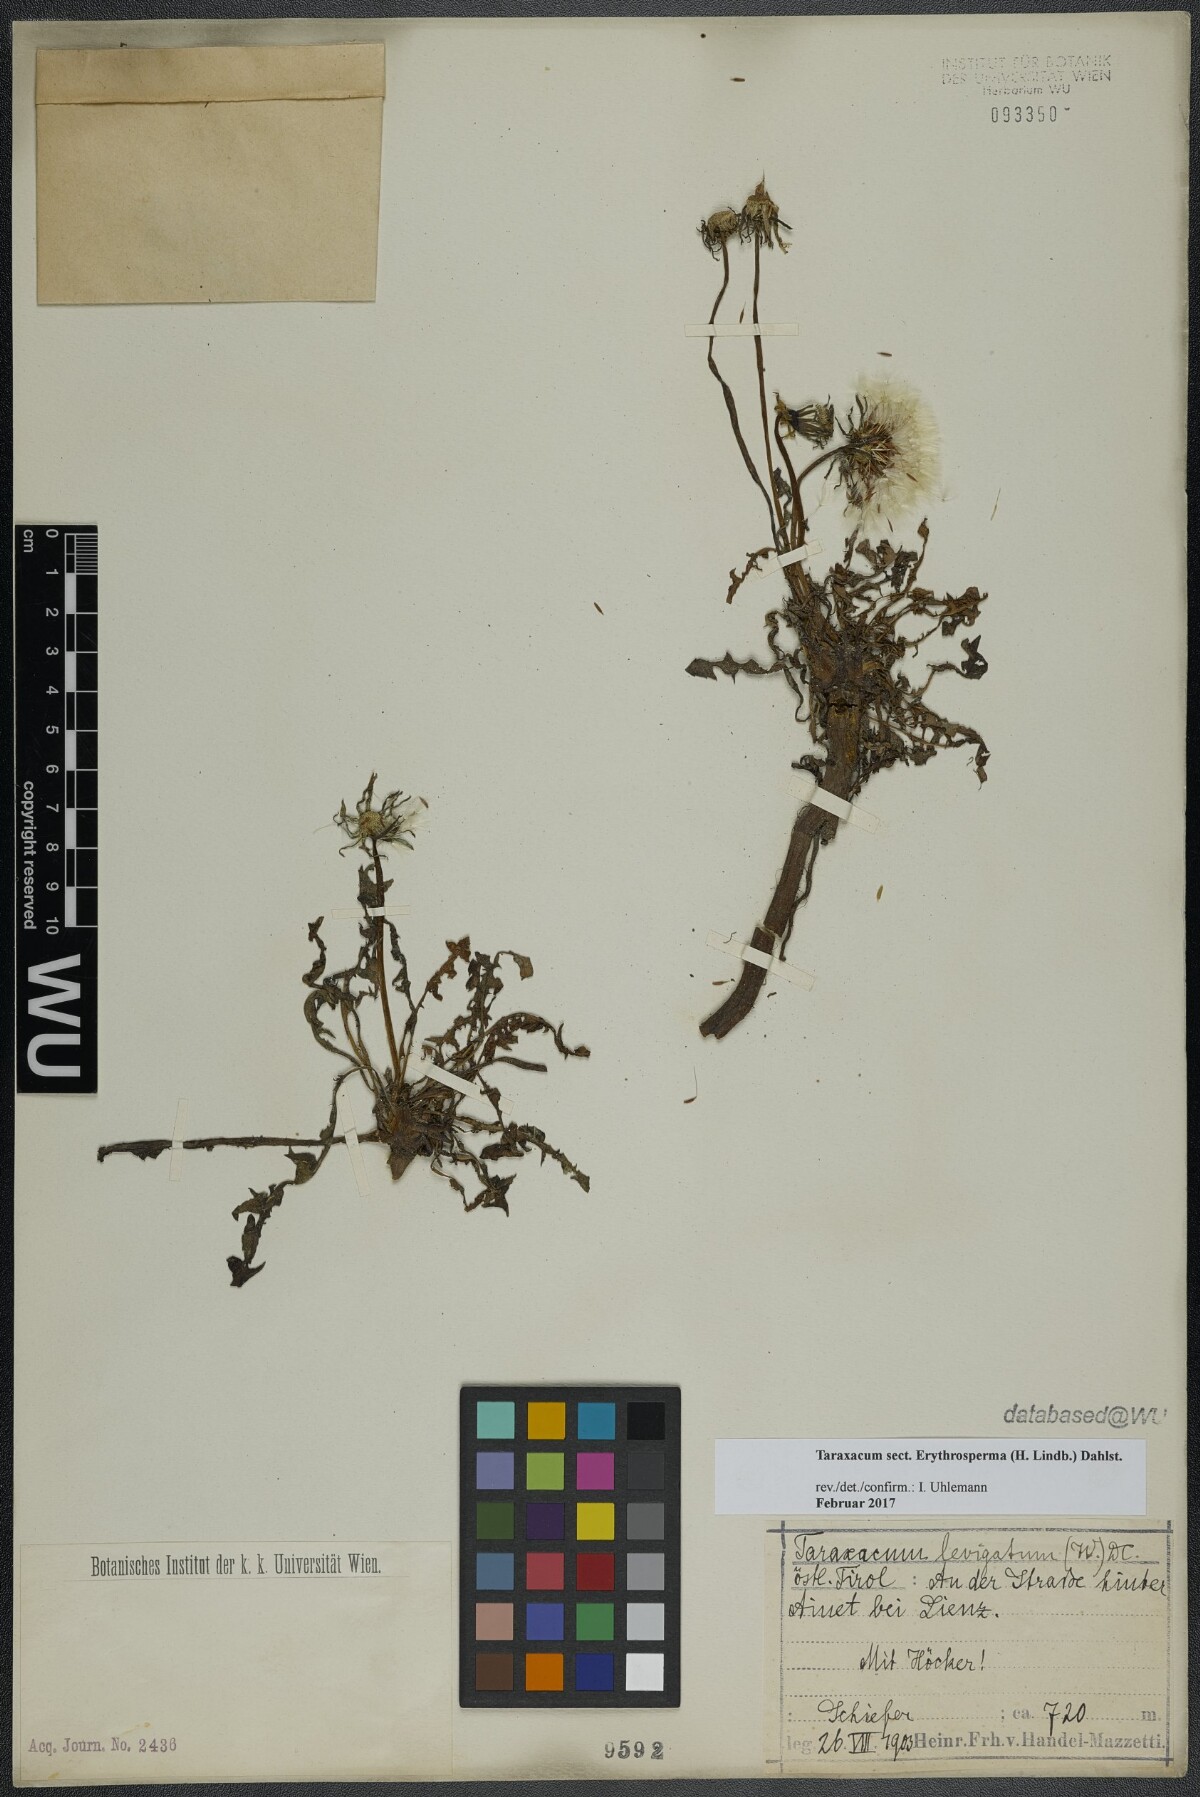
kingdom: Plantae
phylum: Tracheophyta
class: Magnoliopsida
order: Asterales
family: Asteraceae
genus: Taraxacum
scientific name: Taraxacum
